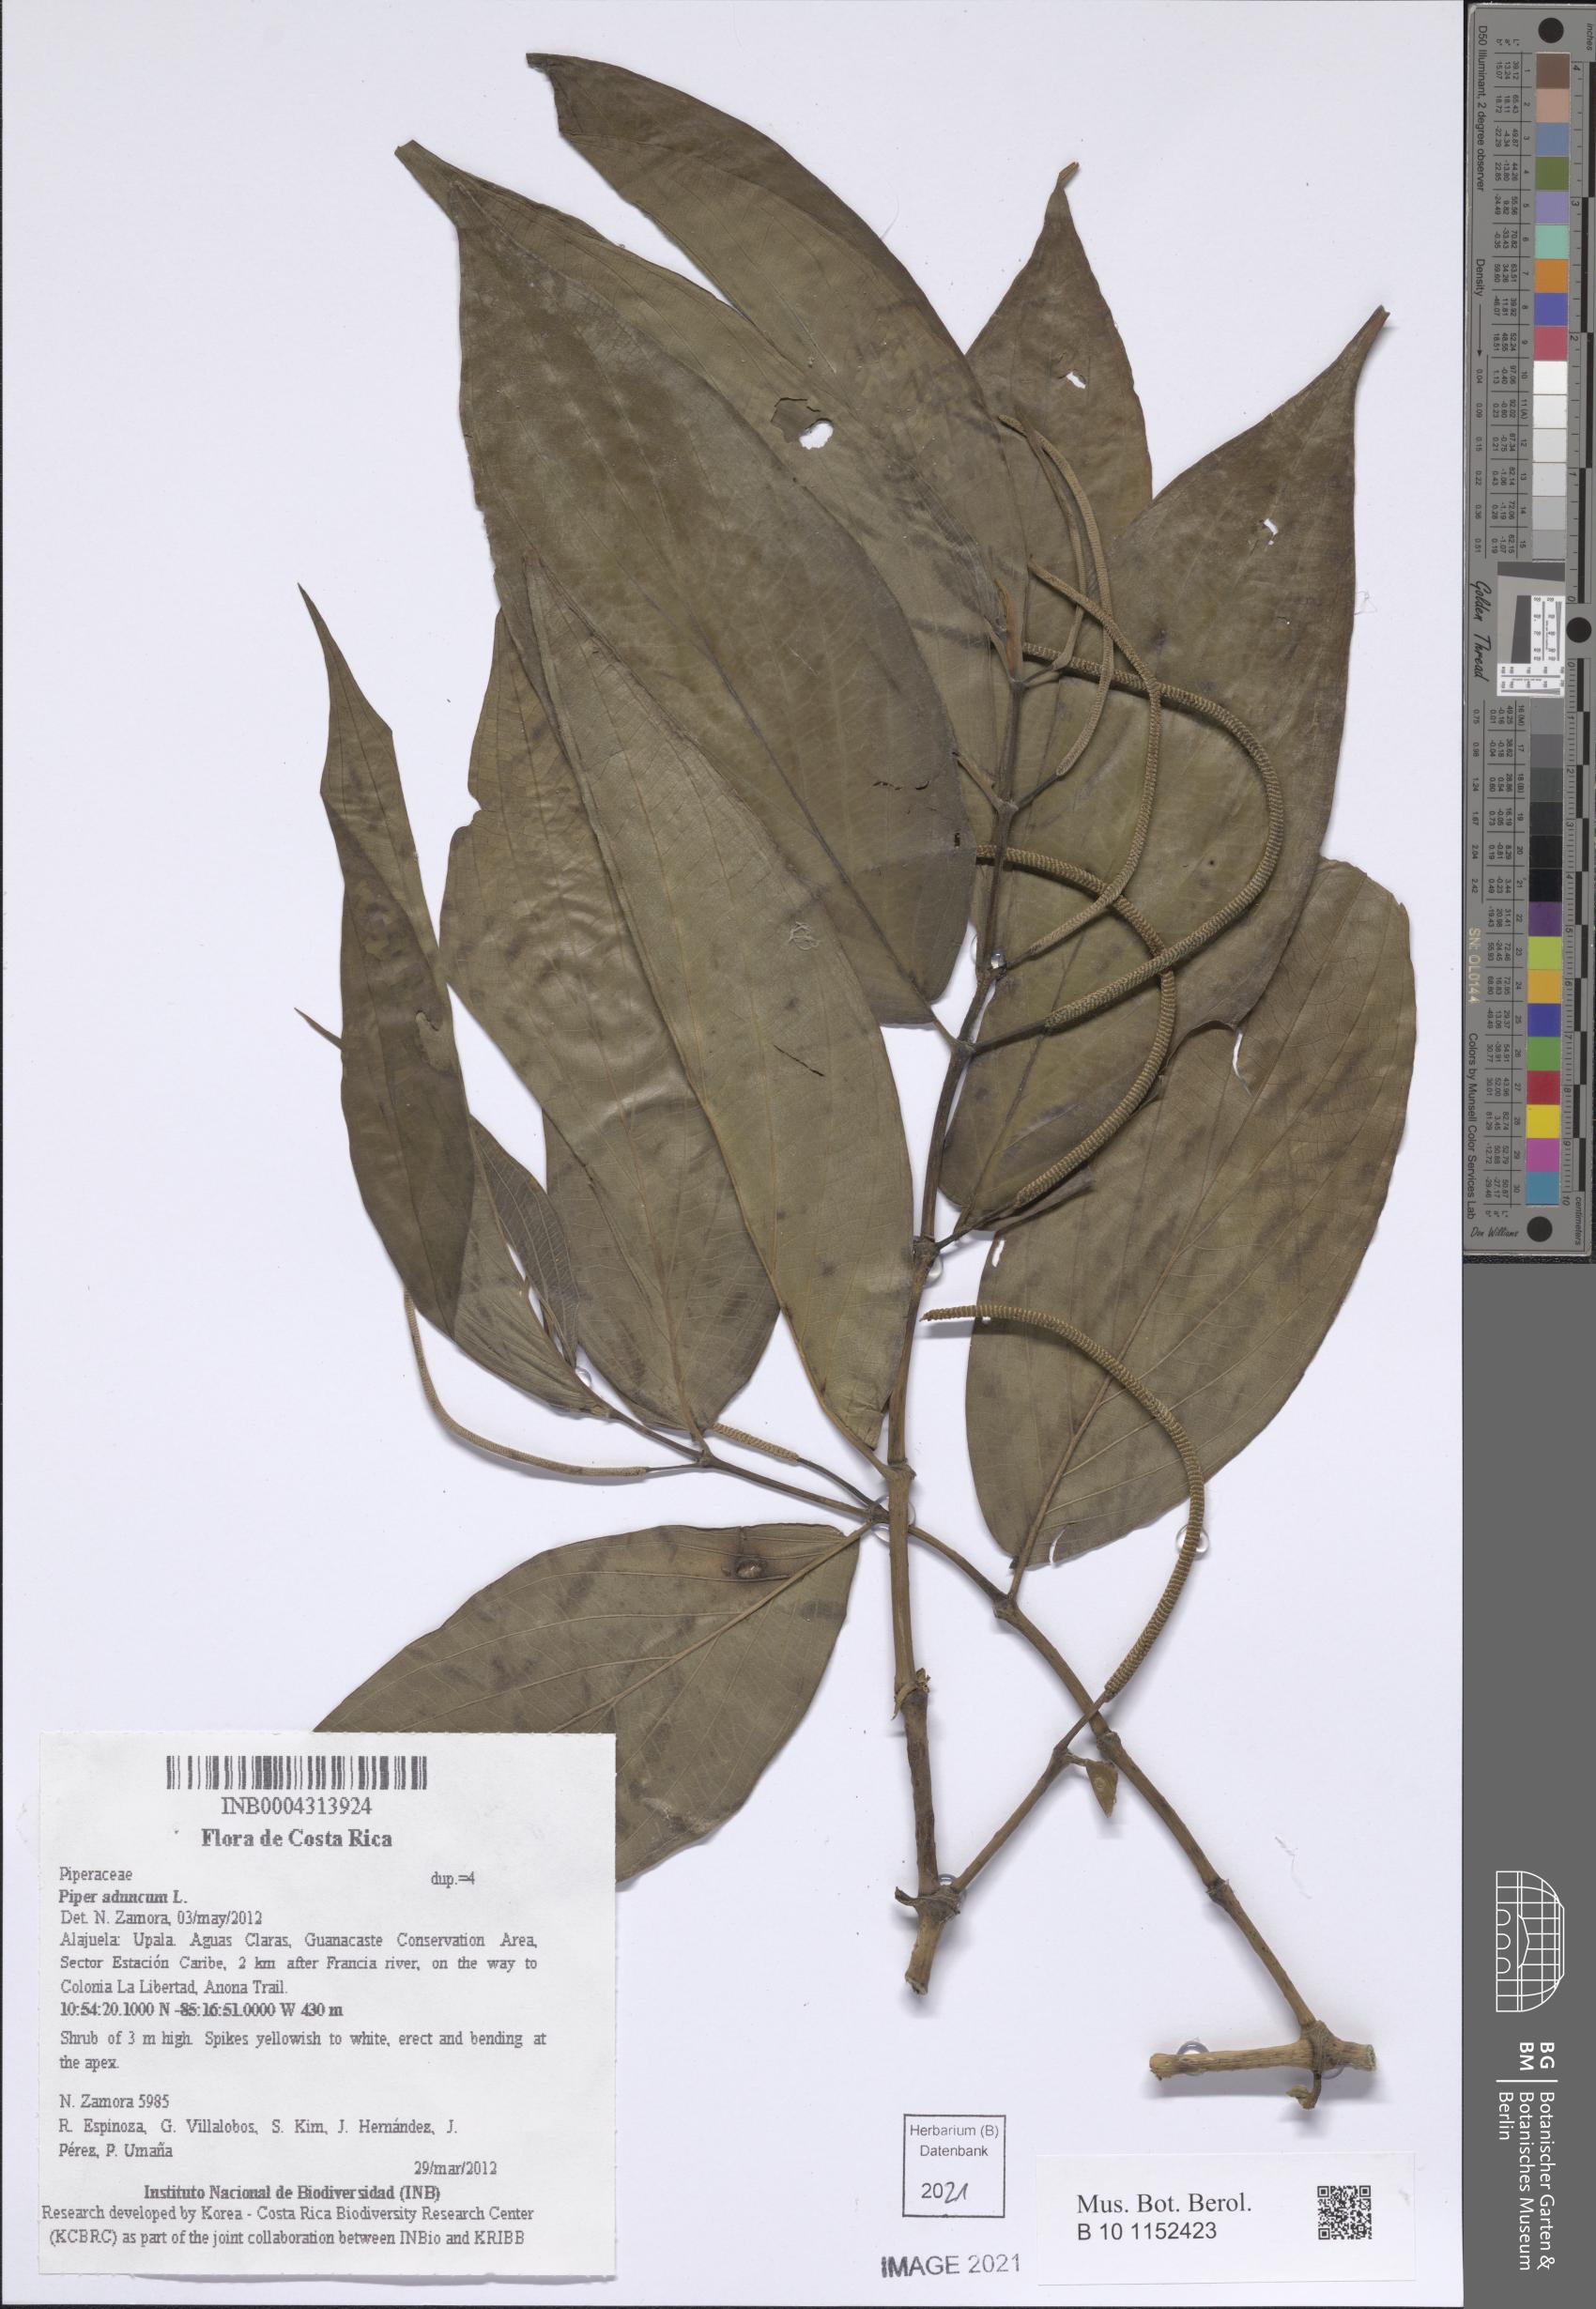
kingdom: Plantae
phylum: Tracheophyta
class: Magnoliopsida
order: Piperales
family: Piperaceae
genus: Piper
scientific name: Piper aduncum
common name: Spiked pepper
